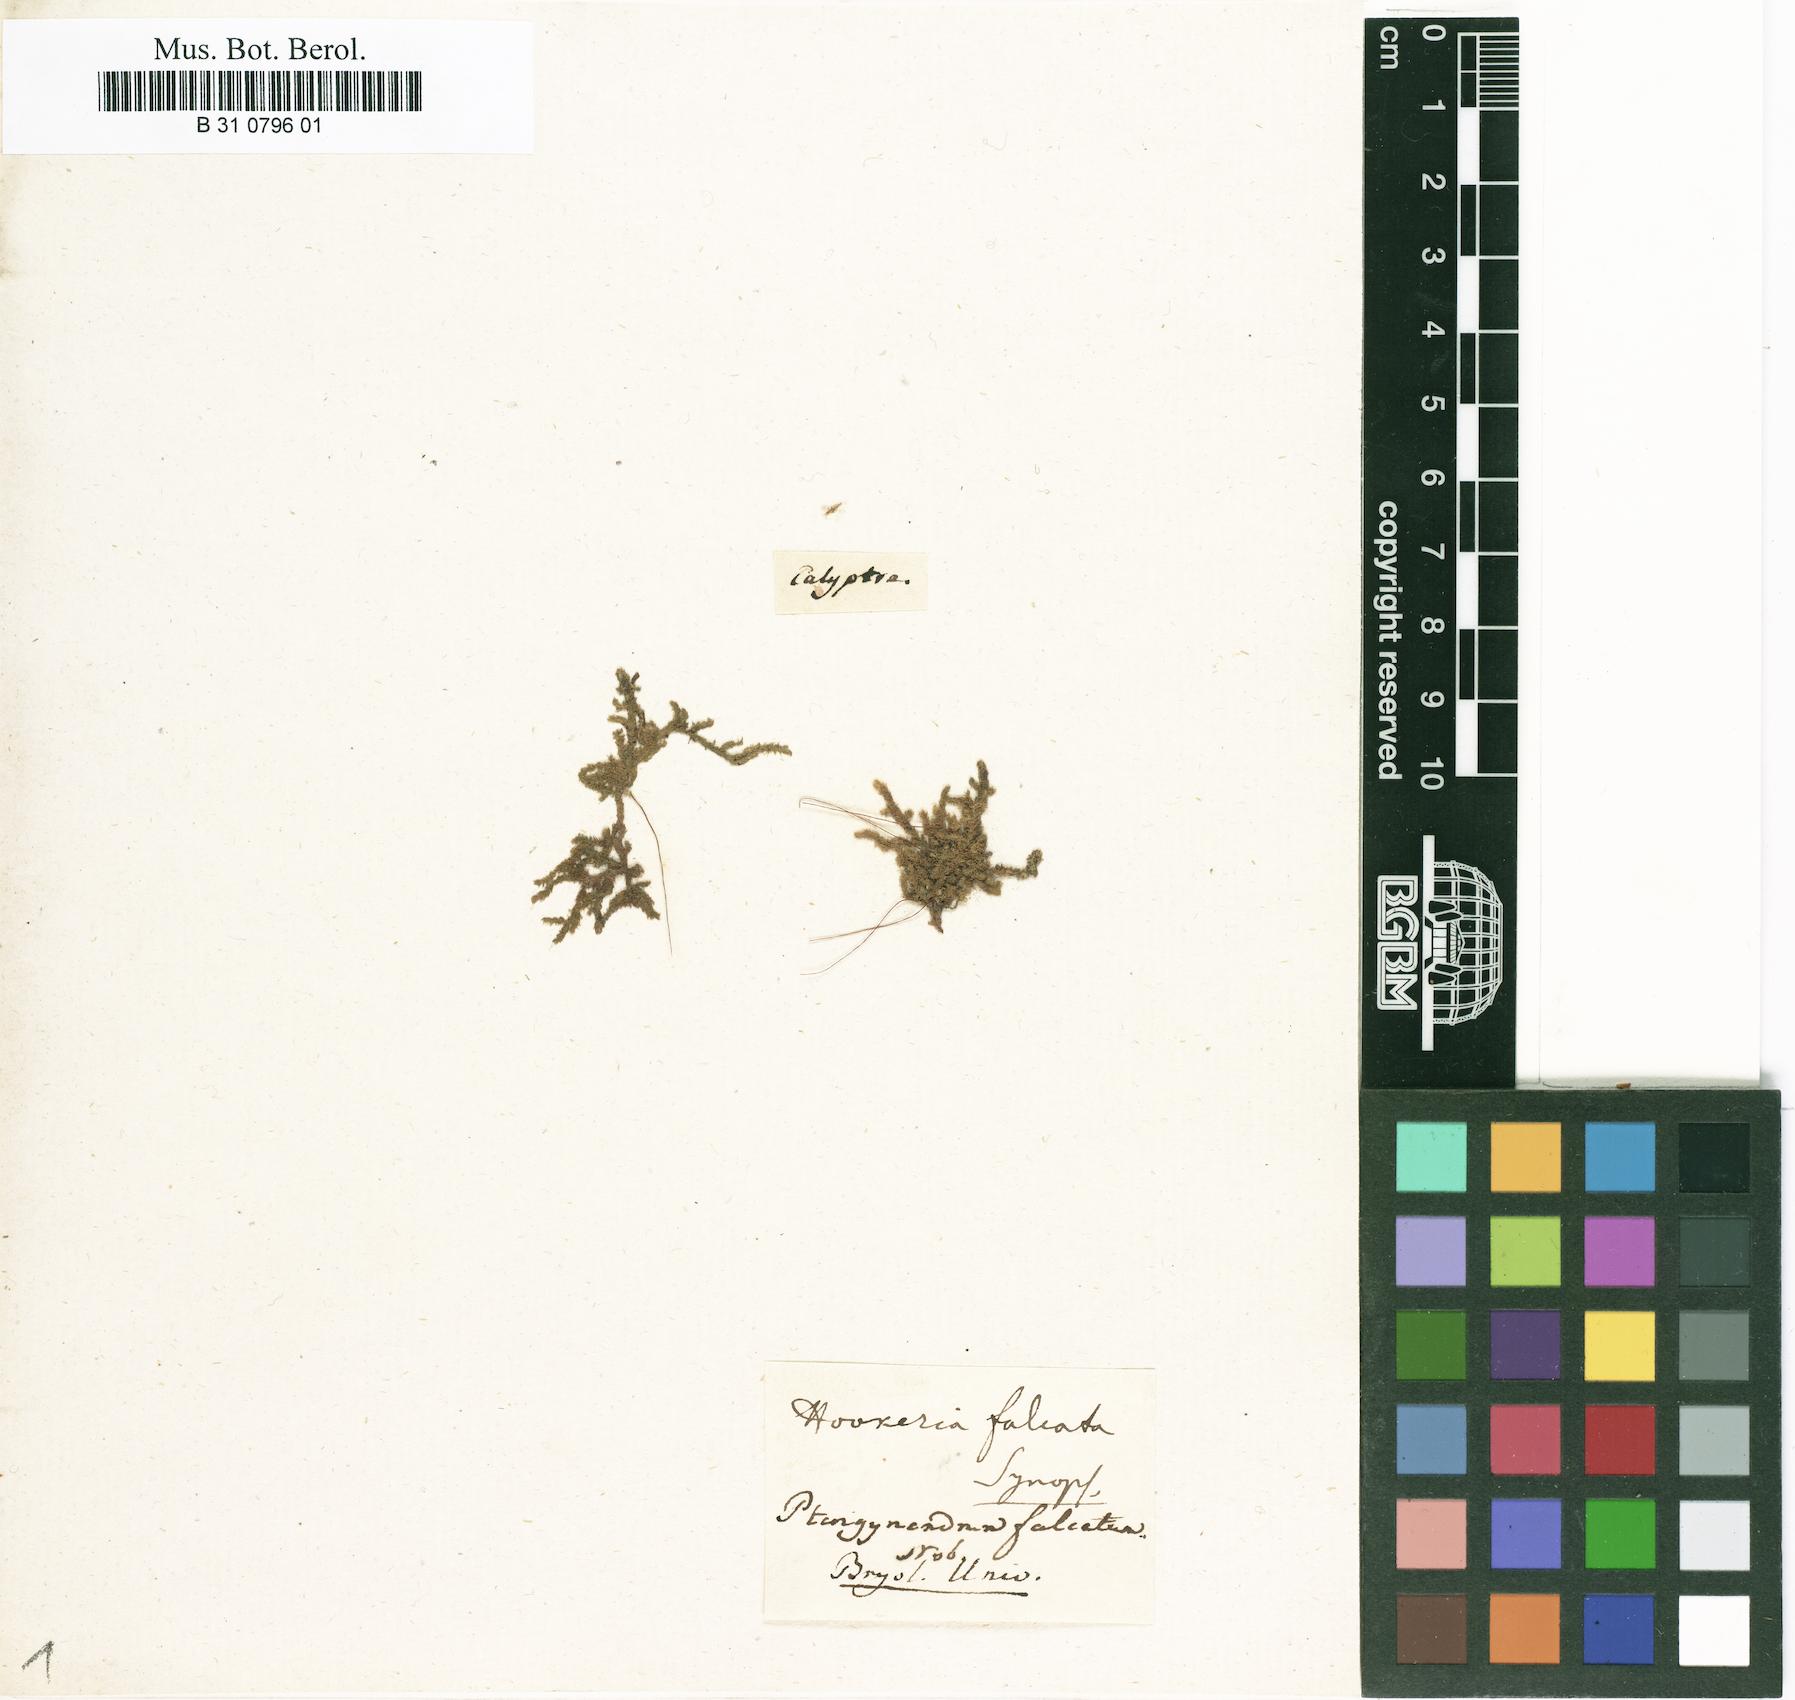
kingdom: Plantae
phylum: Bryophyta
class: Bryopsida
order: Hookeriales
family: Pilotrichaceae
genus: Trachyxiphium
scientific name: Trachyxiphium guadalupense
